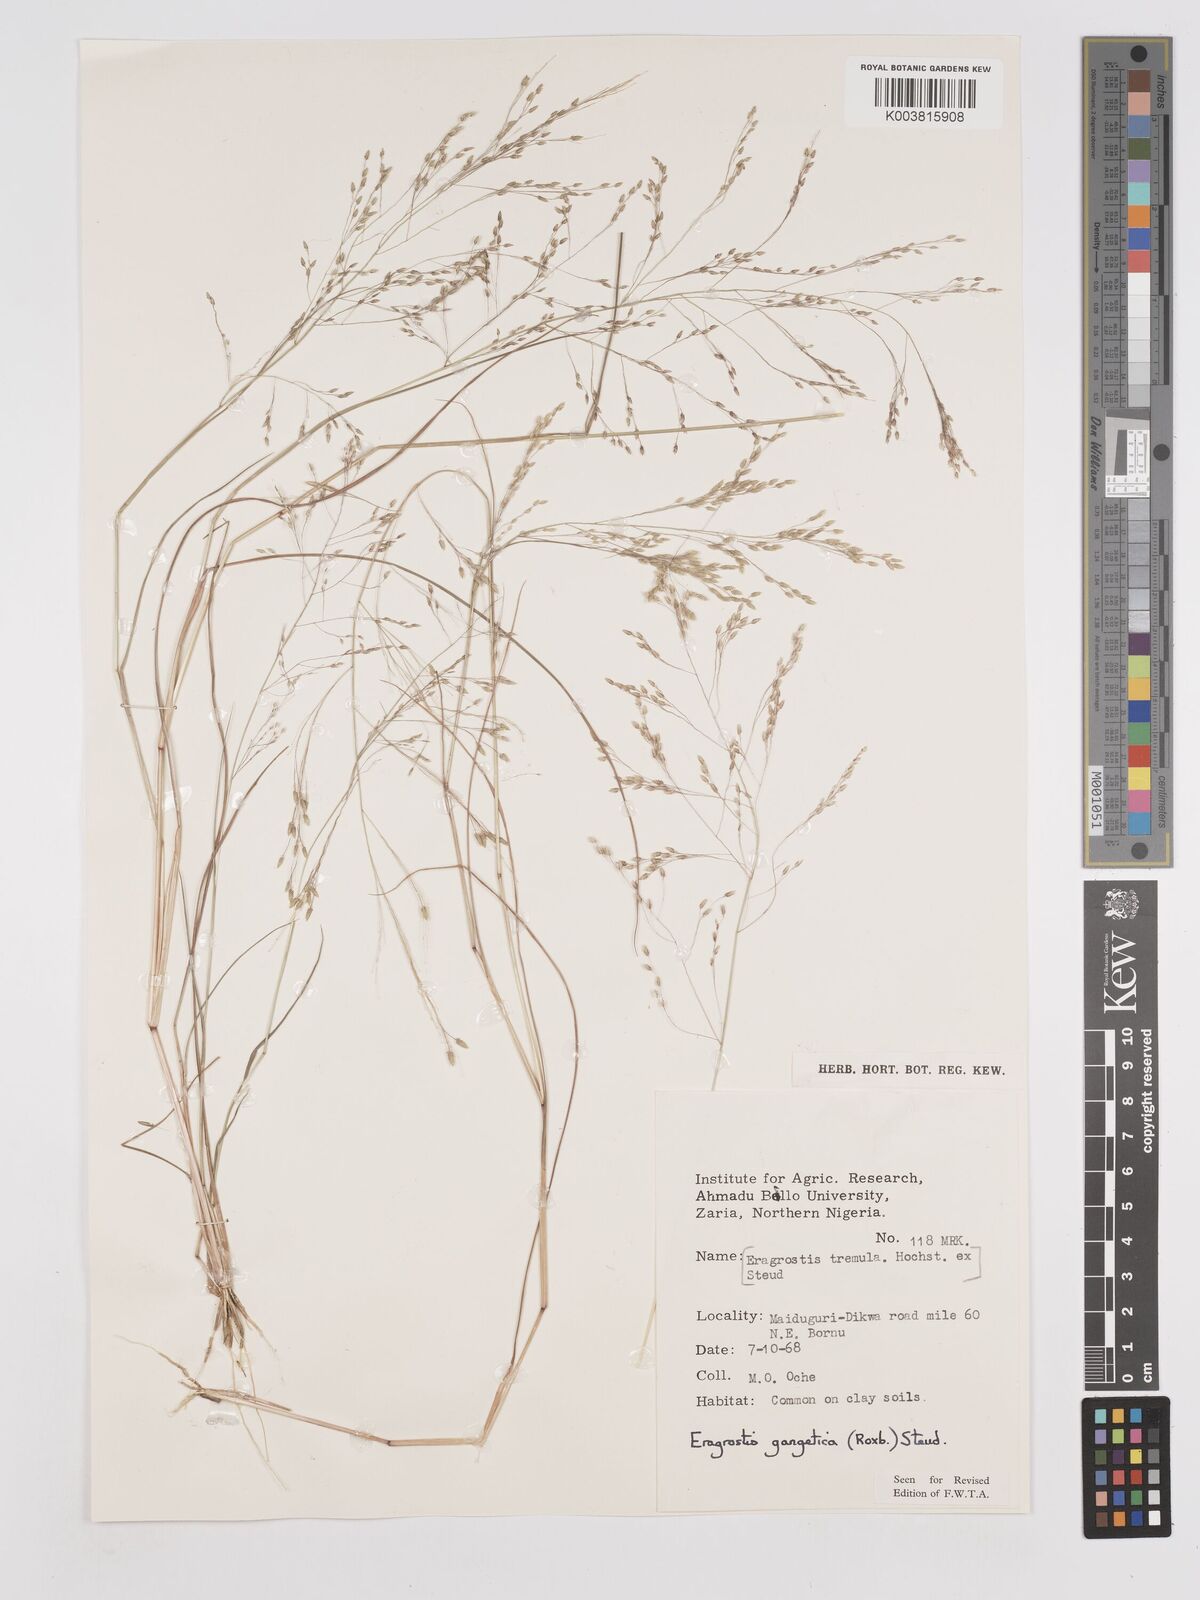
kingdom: Plantae
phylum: Tracheophyta
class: Liliopsida
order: Poales
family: Poaceae
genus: Eragrostis
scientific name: Eragrostis gangetica
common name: Slimflower lovegrass
